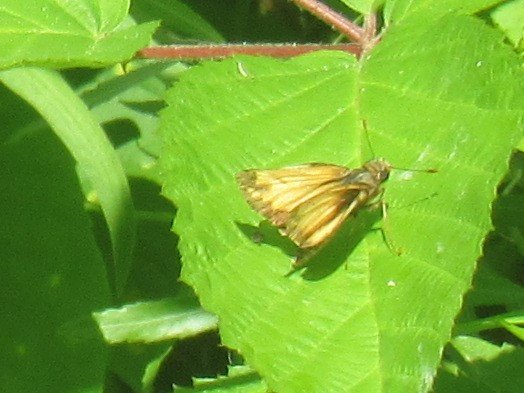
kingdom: Animalia
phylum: Arthropoda
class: Insecta
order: Lepidoptera
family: Hesperiidae
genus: Lon
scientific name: Lon hobomok
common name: Hobomok Skipper
